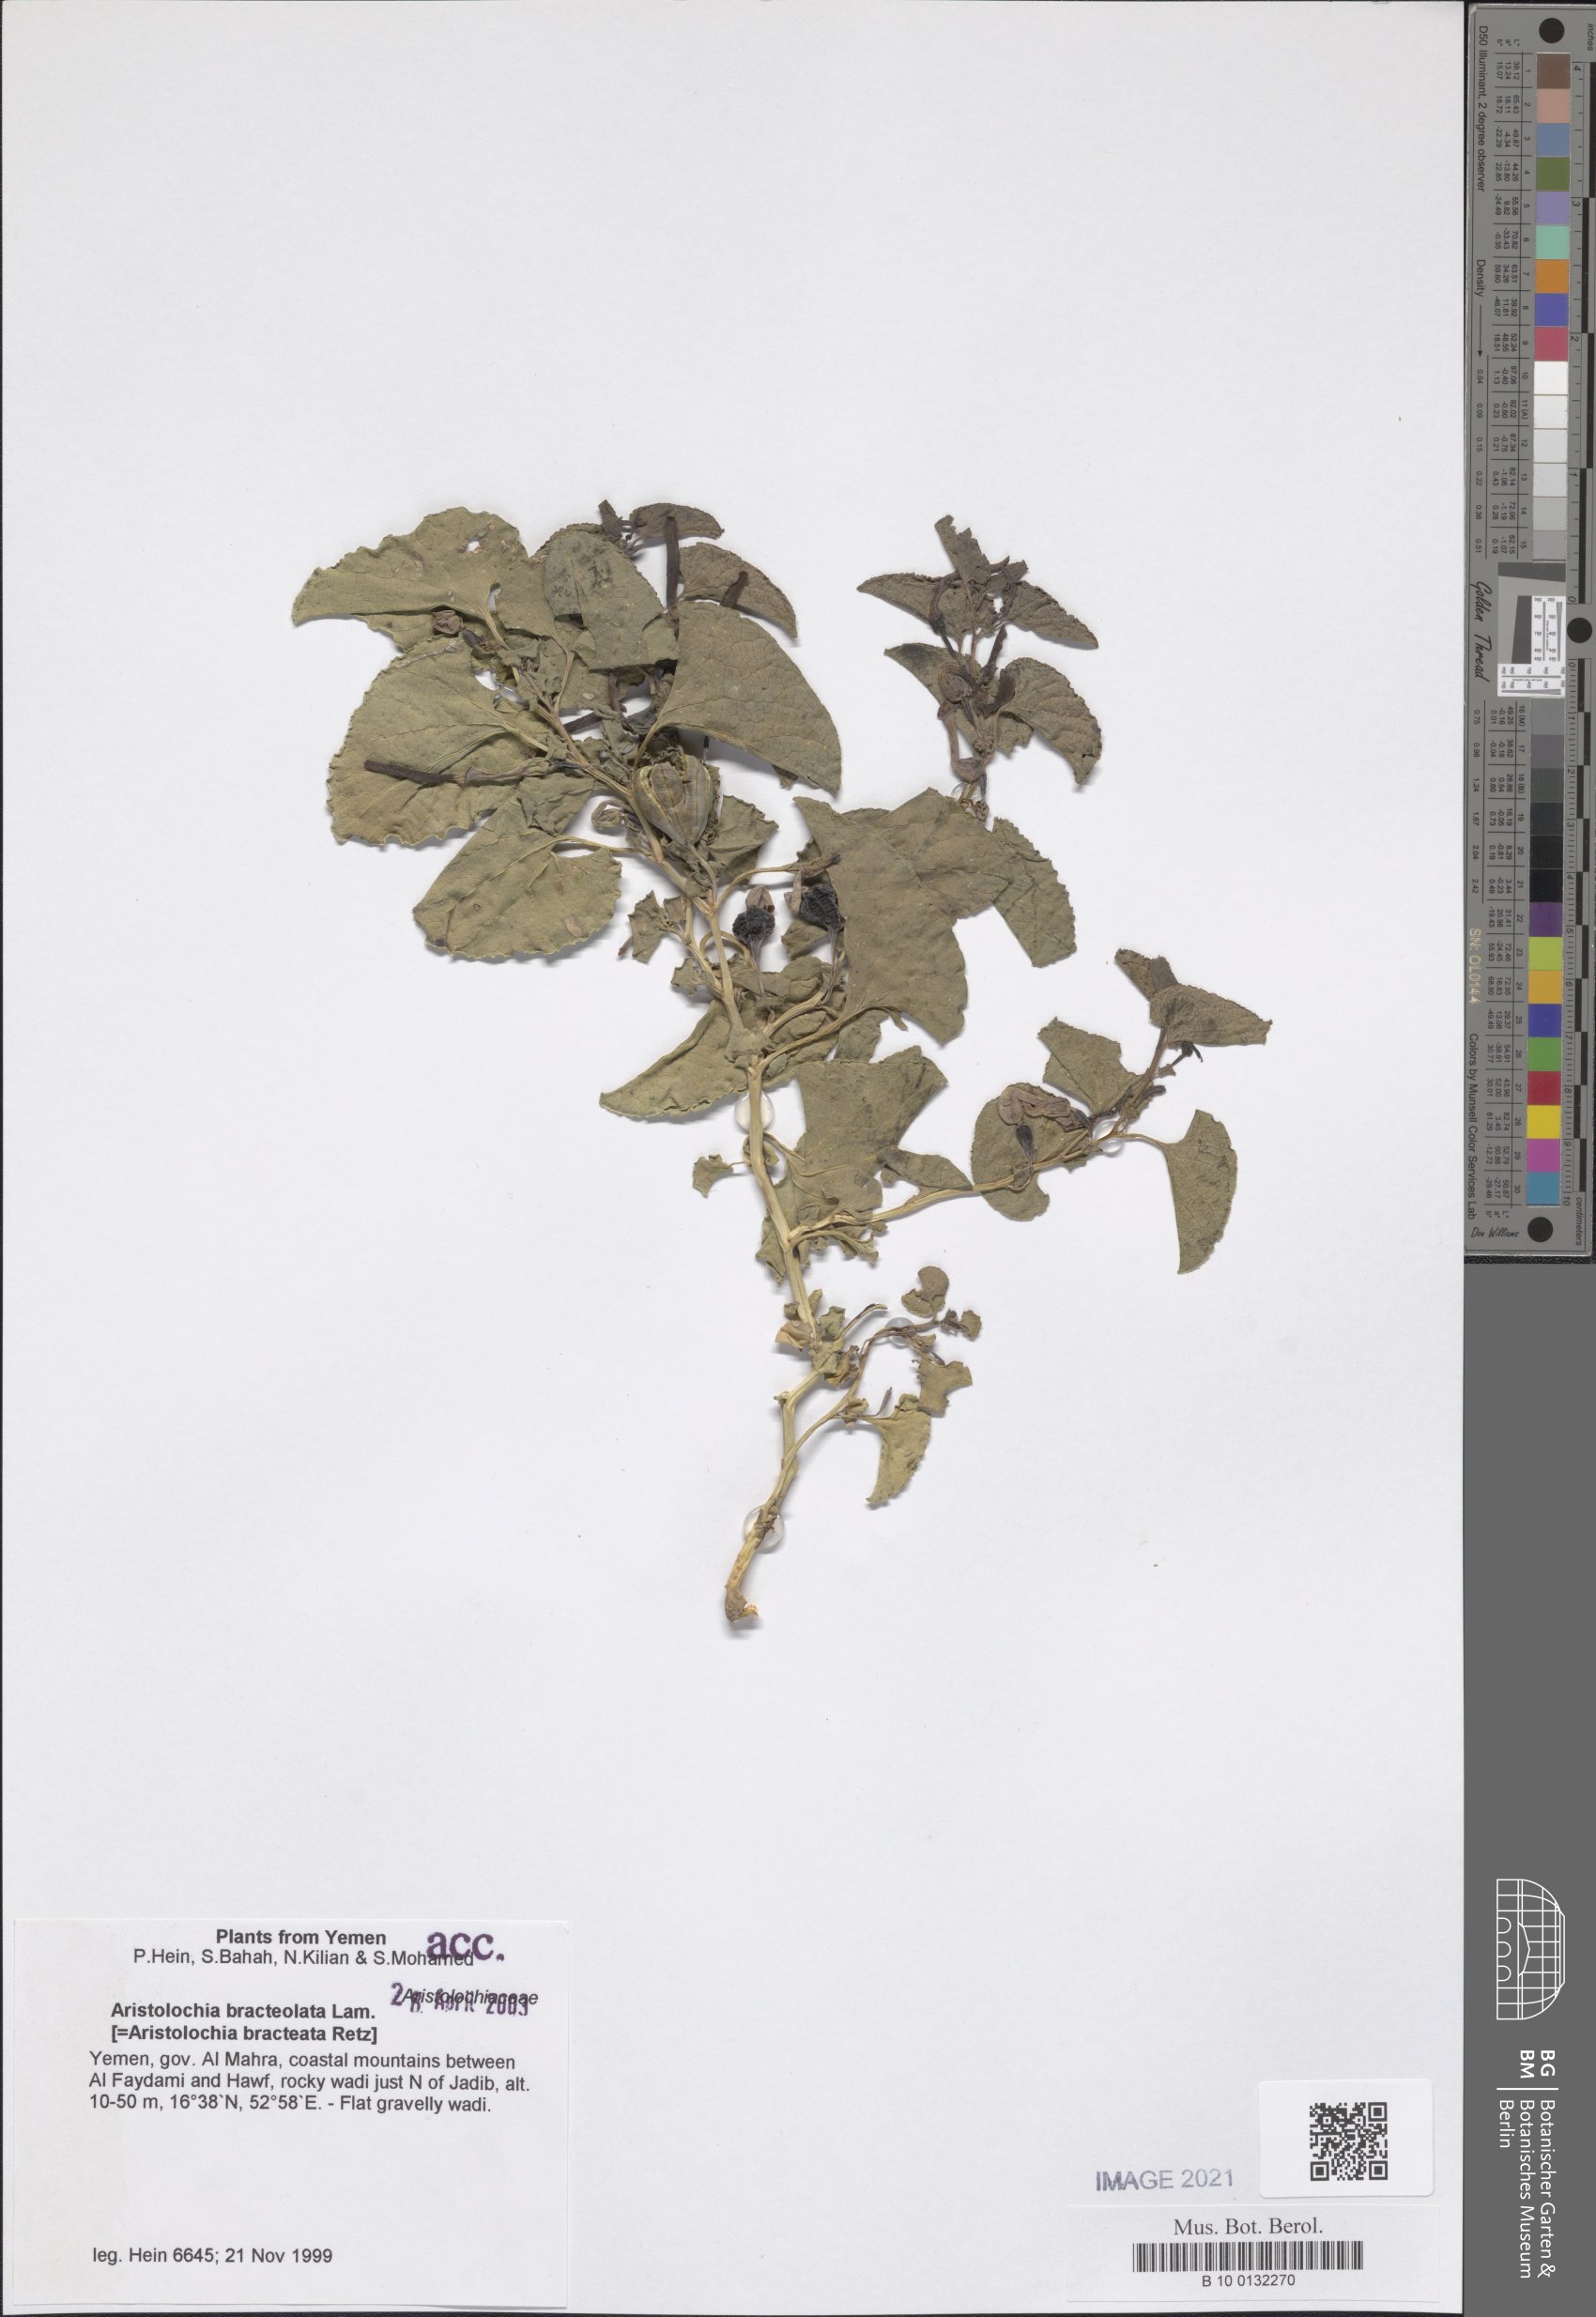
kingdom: Plantae
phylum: Tracheophyta
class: Magnoliopsida
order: Piperales
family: Aristolochiaceae
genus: Aristolochia
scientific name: Aristolochia bracteolata
